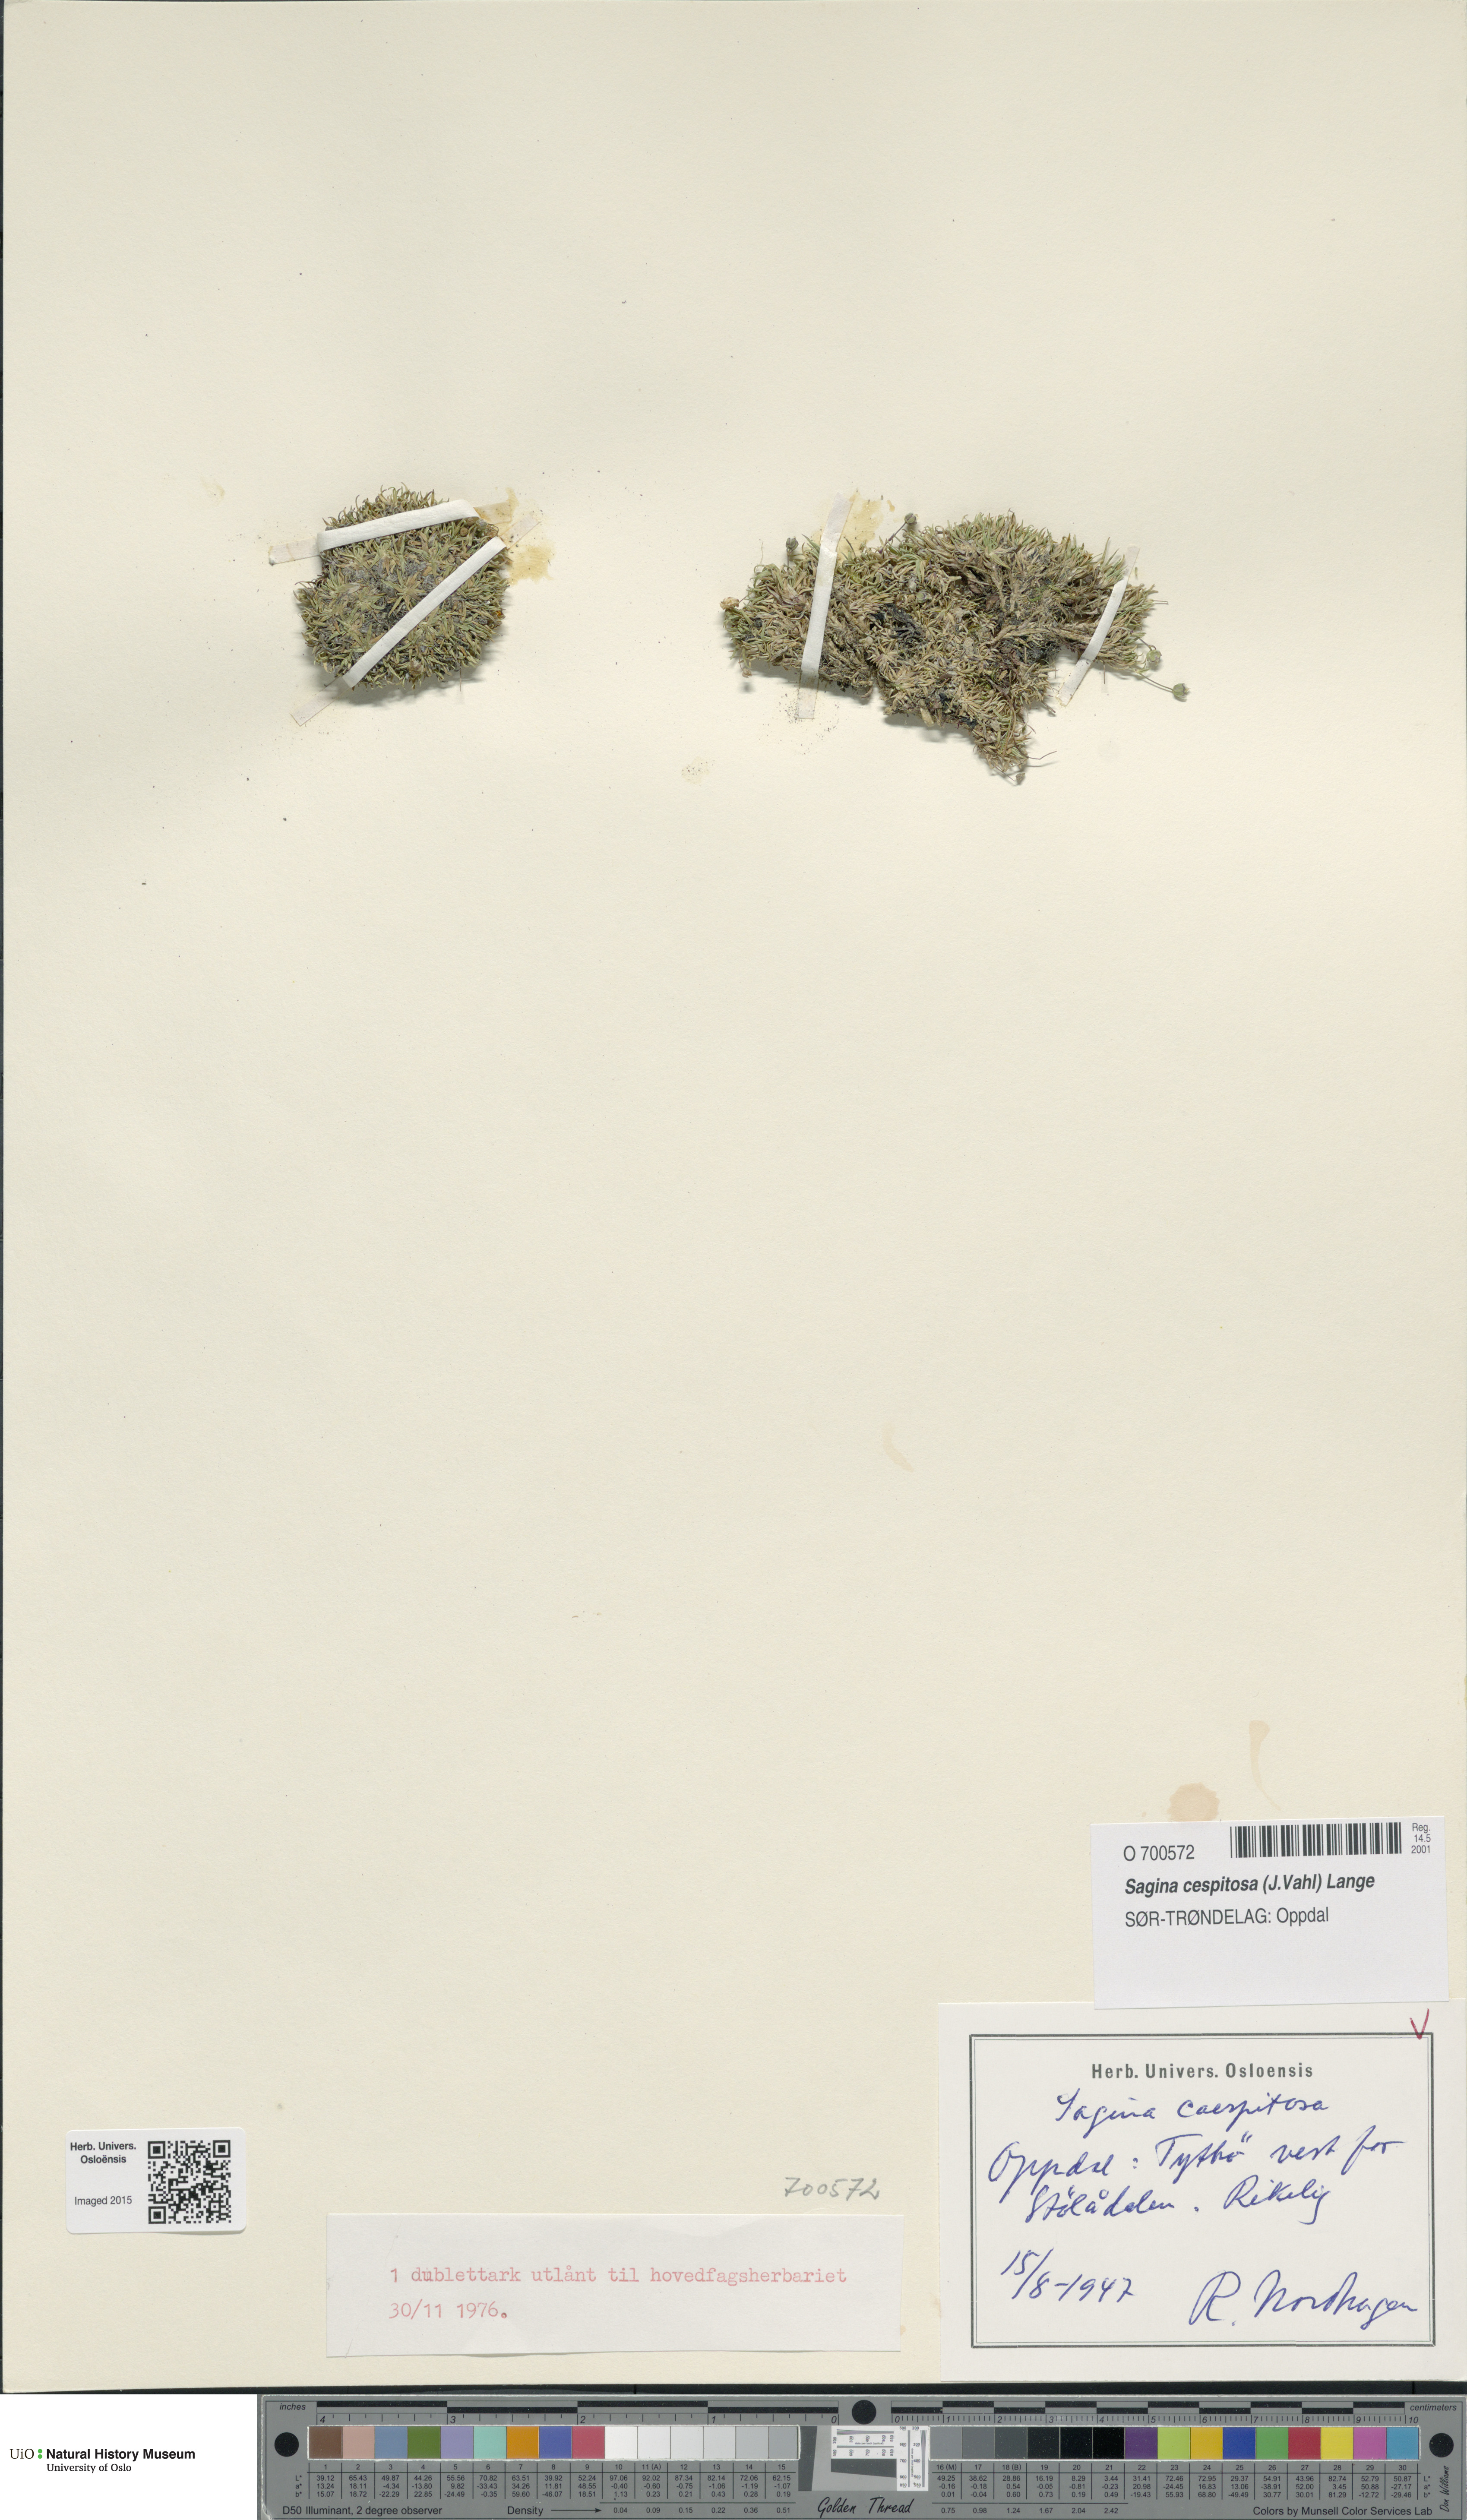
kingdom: Plantae
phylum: Tracheophyta
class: Magnoliopsida
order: Caryophyllales
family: Caryophyllaceae
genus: Sagina
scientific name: Sagina caespitosa
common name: Tufted pearlwort
